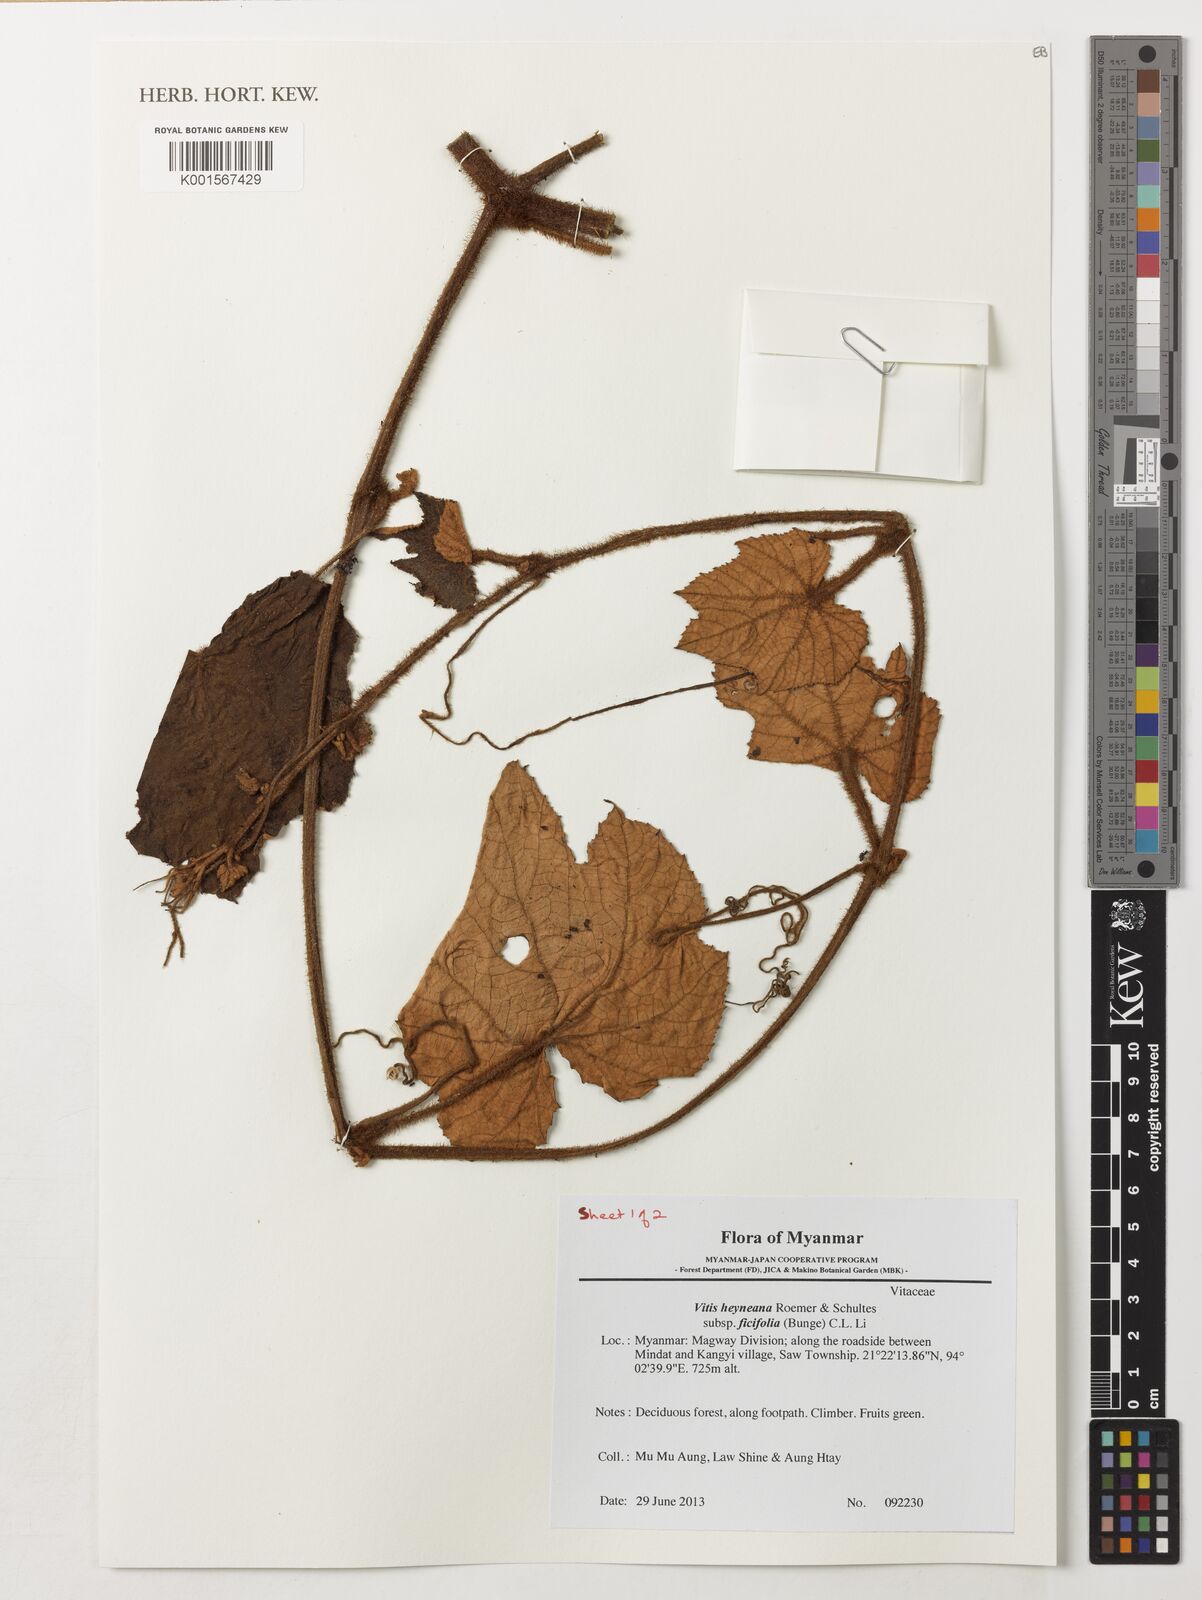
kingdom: Plantae
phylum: Tracheophyta
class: Magnoliopsida
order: Vitales
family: Vitaceae
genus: Vitis
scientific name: Vitis ficifolia
